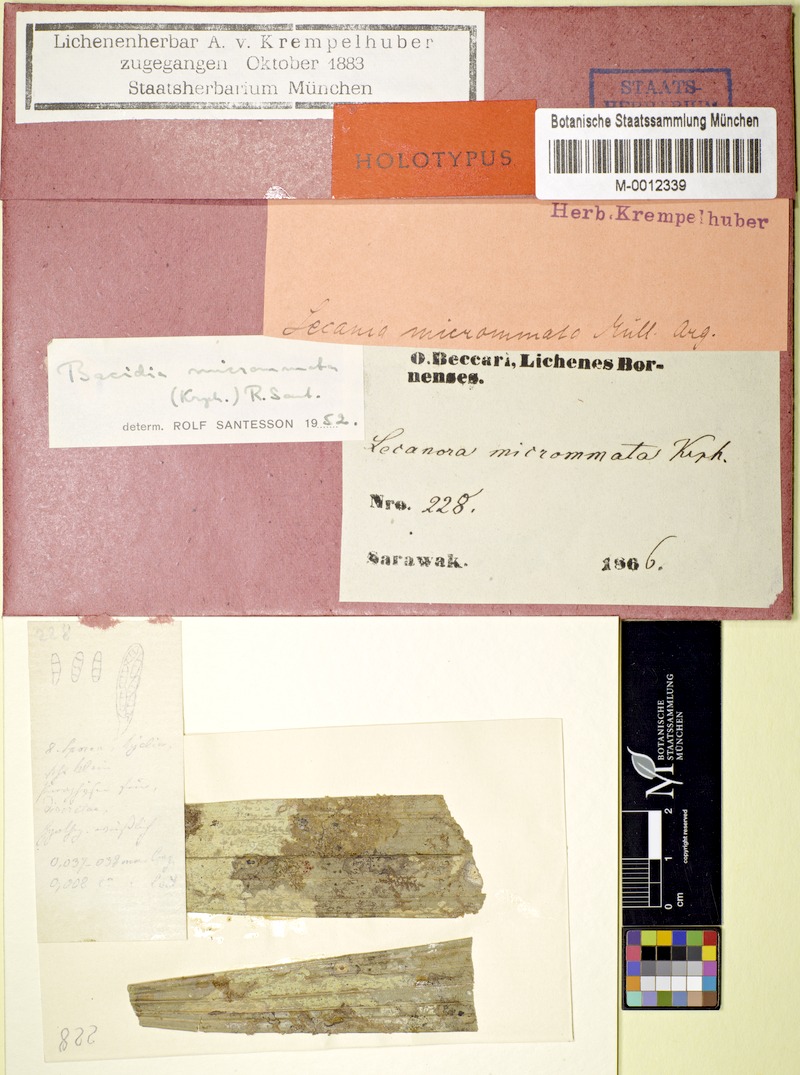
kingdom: Fungi
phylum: Ascomycota
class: Lecanoromycetes
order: Lecanorales
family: Byssolomataceae
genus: Eugeniella
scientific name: Eugeniella micrommata
